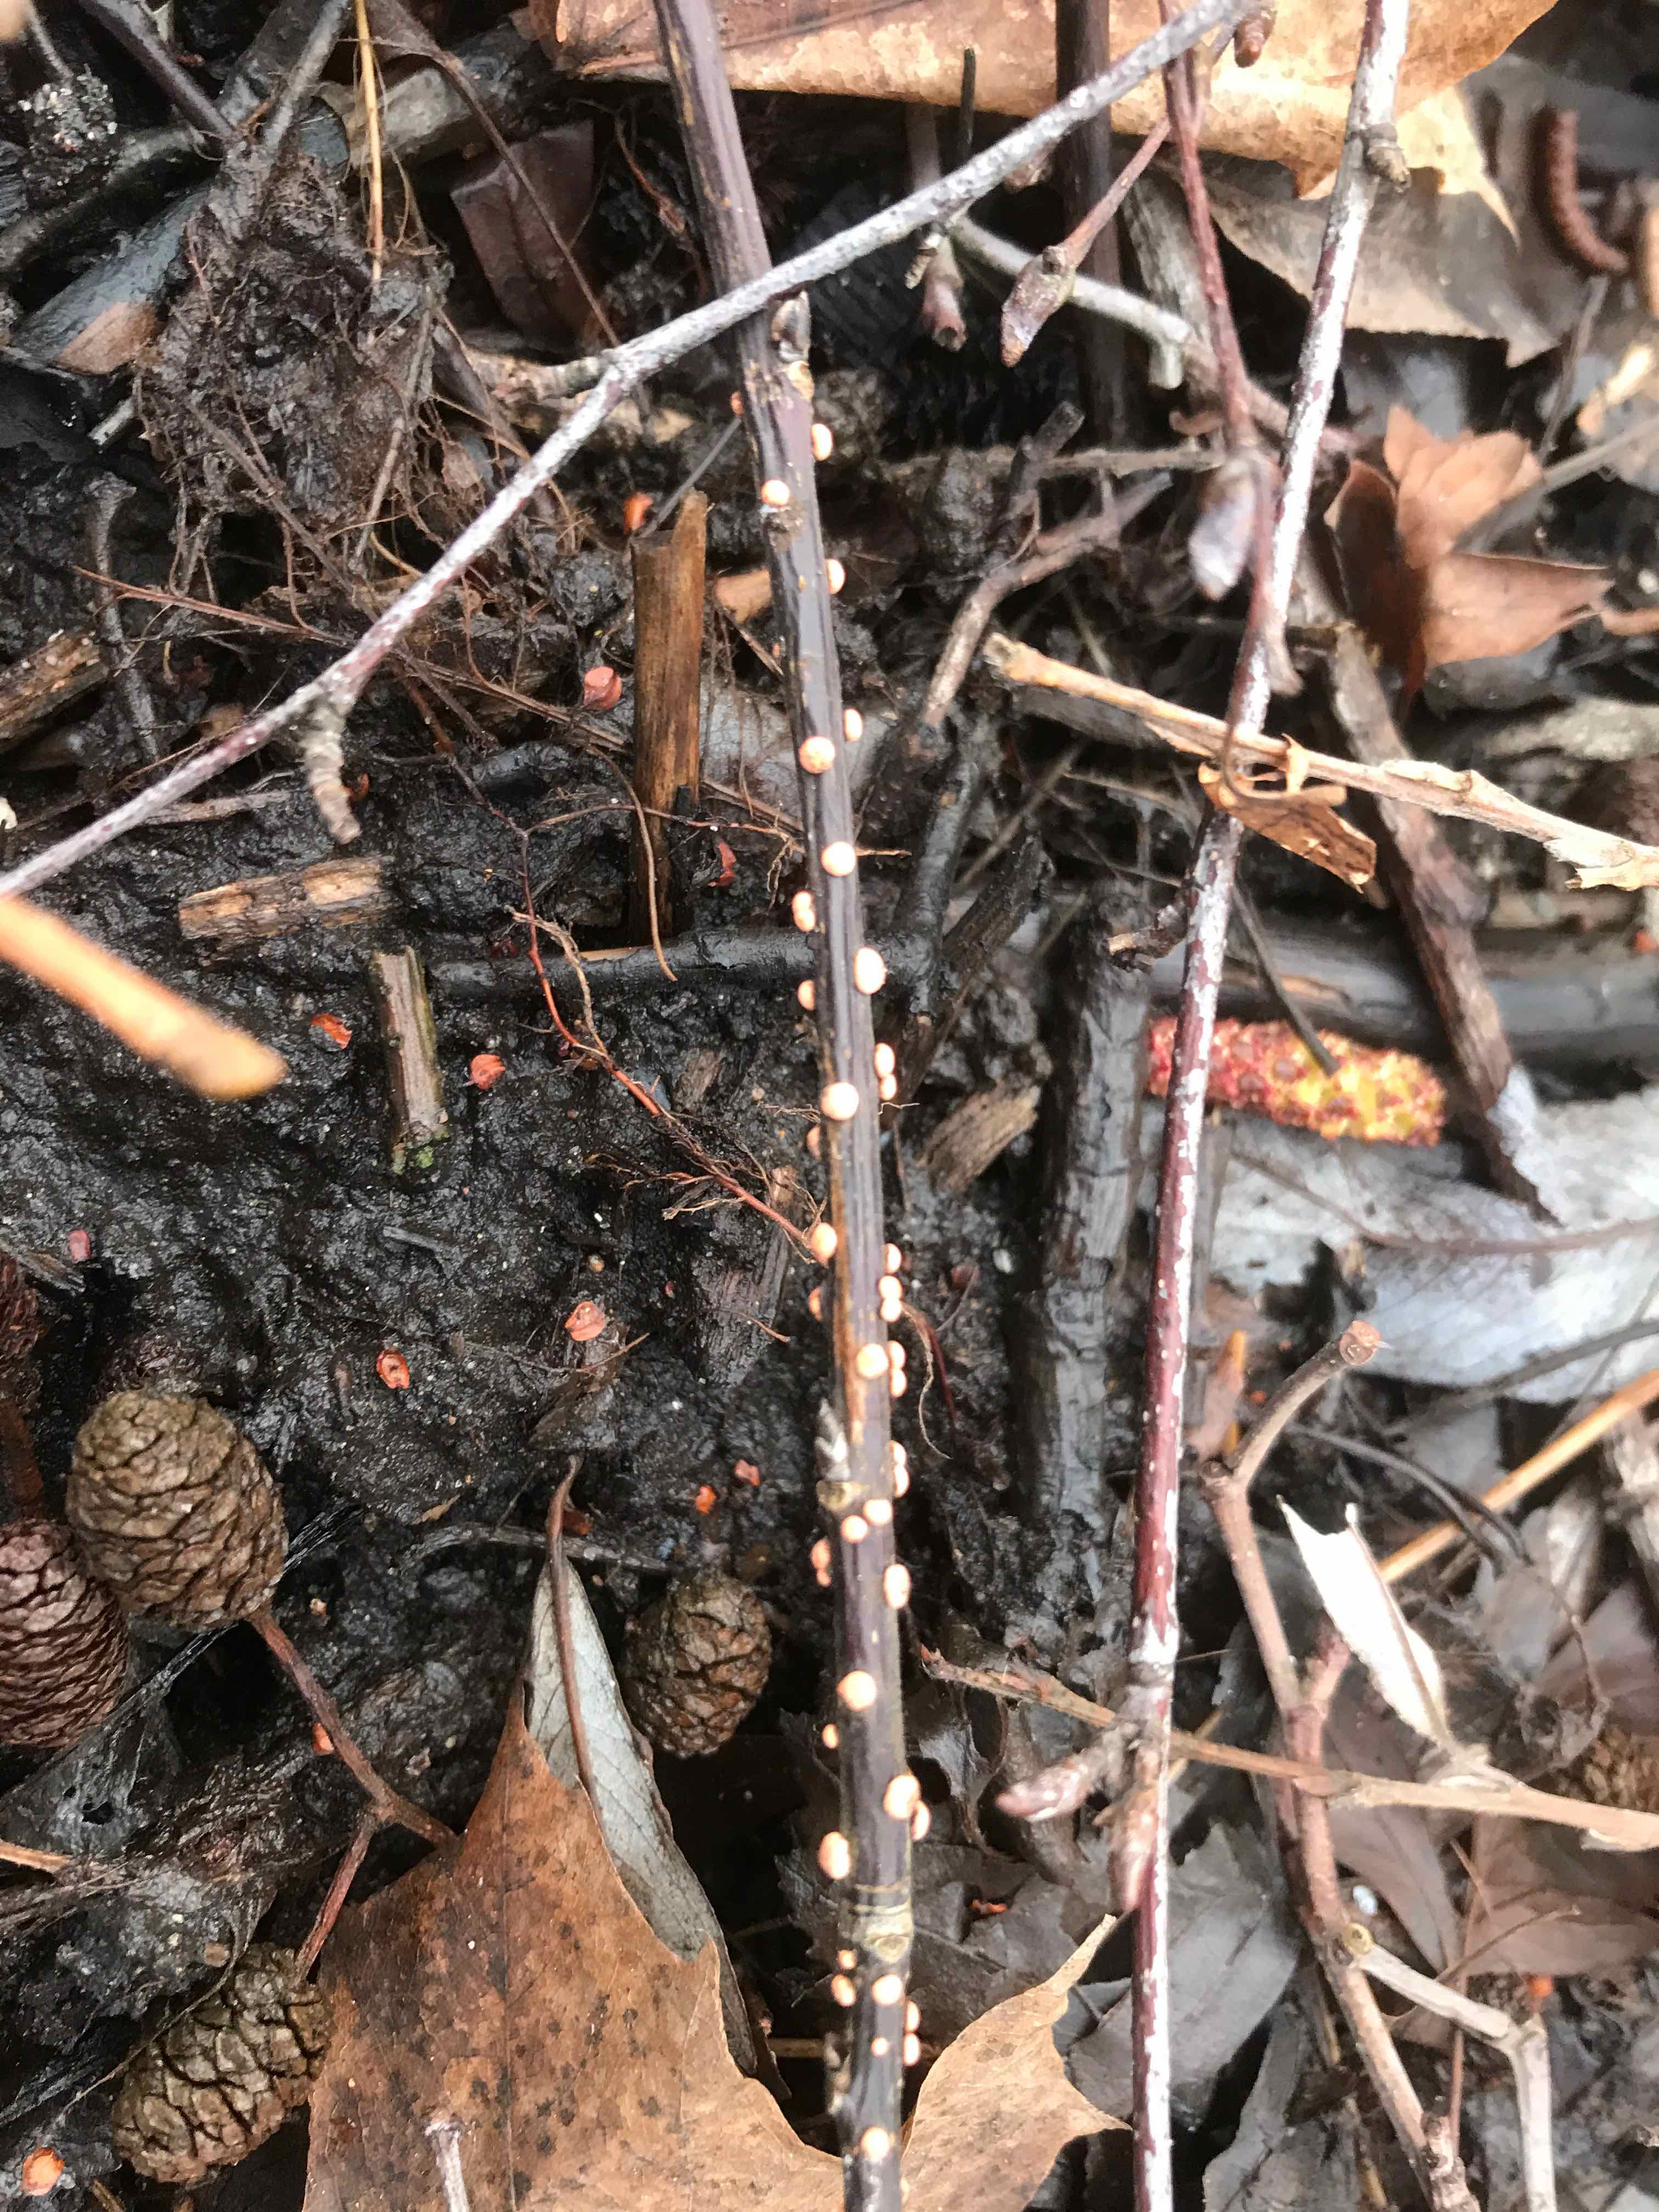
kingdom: Fungi
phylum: Ascomycota
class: Sordariomycetes
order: Hypocreales
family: Nectriaceae
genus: Nectria
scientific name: Nectria cinnabarina
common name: almindelig cinnobersvamp
